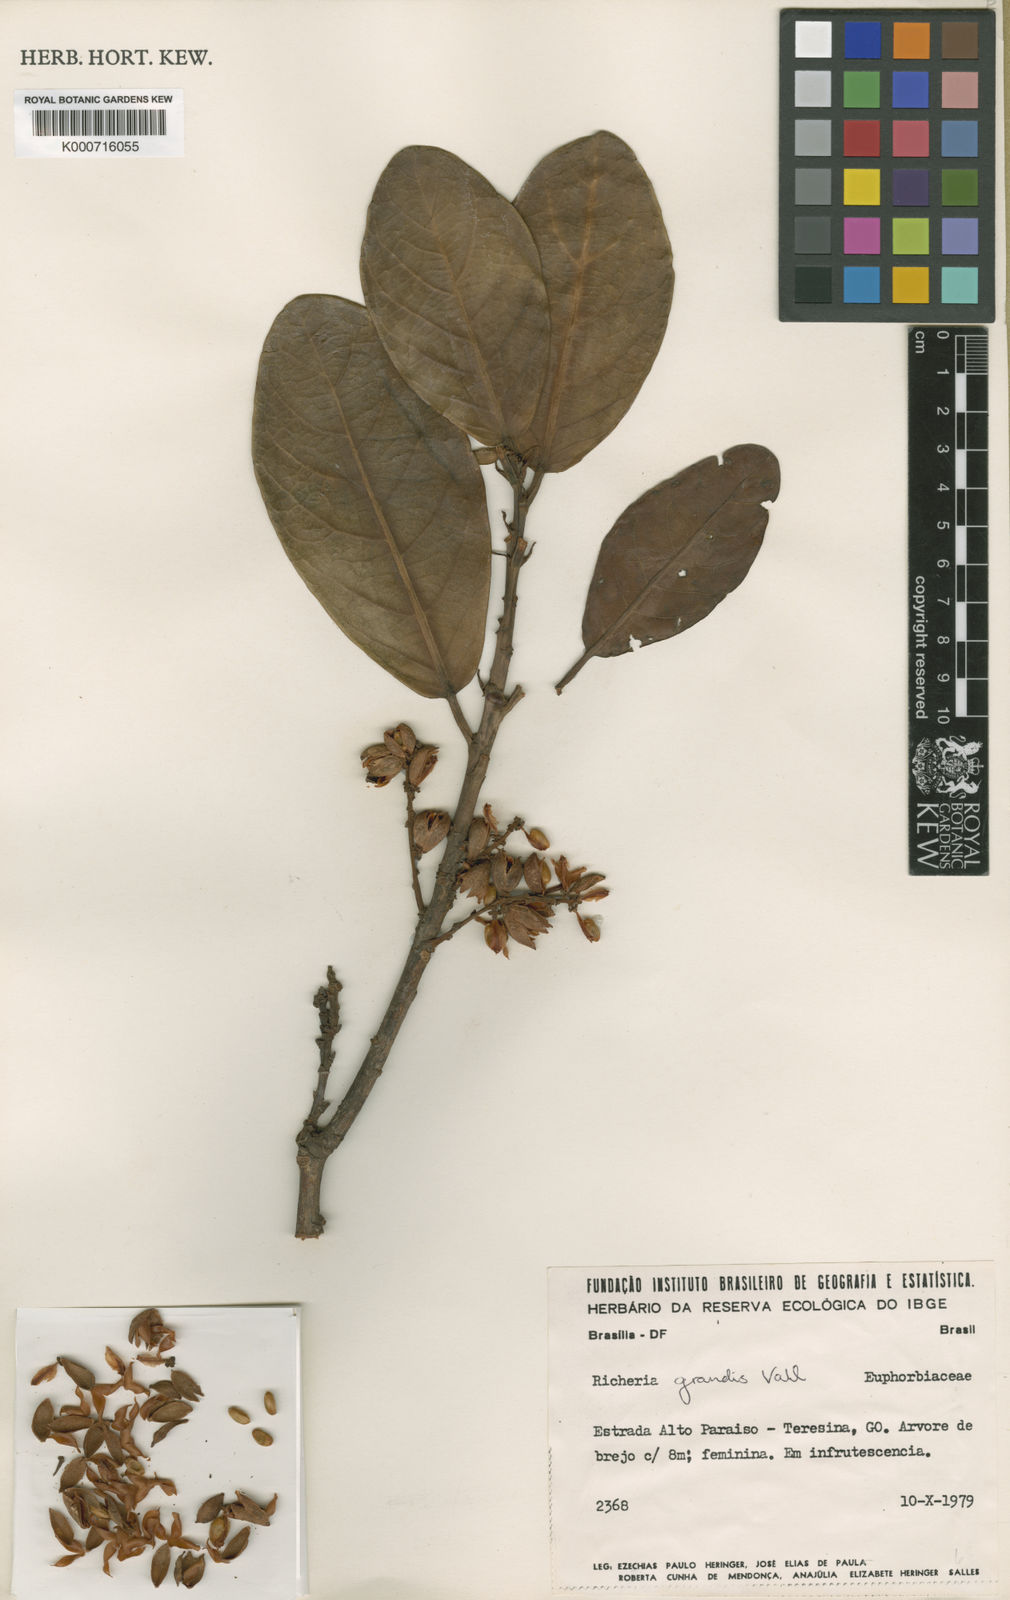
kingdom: Plantae
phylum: Tracheophyta
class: Magnoliopsida
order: Malpighiales
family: Phyllanthaceae
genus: Richeria
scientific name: Richeria grandis
